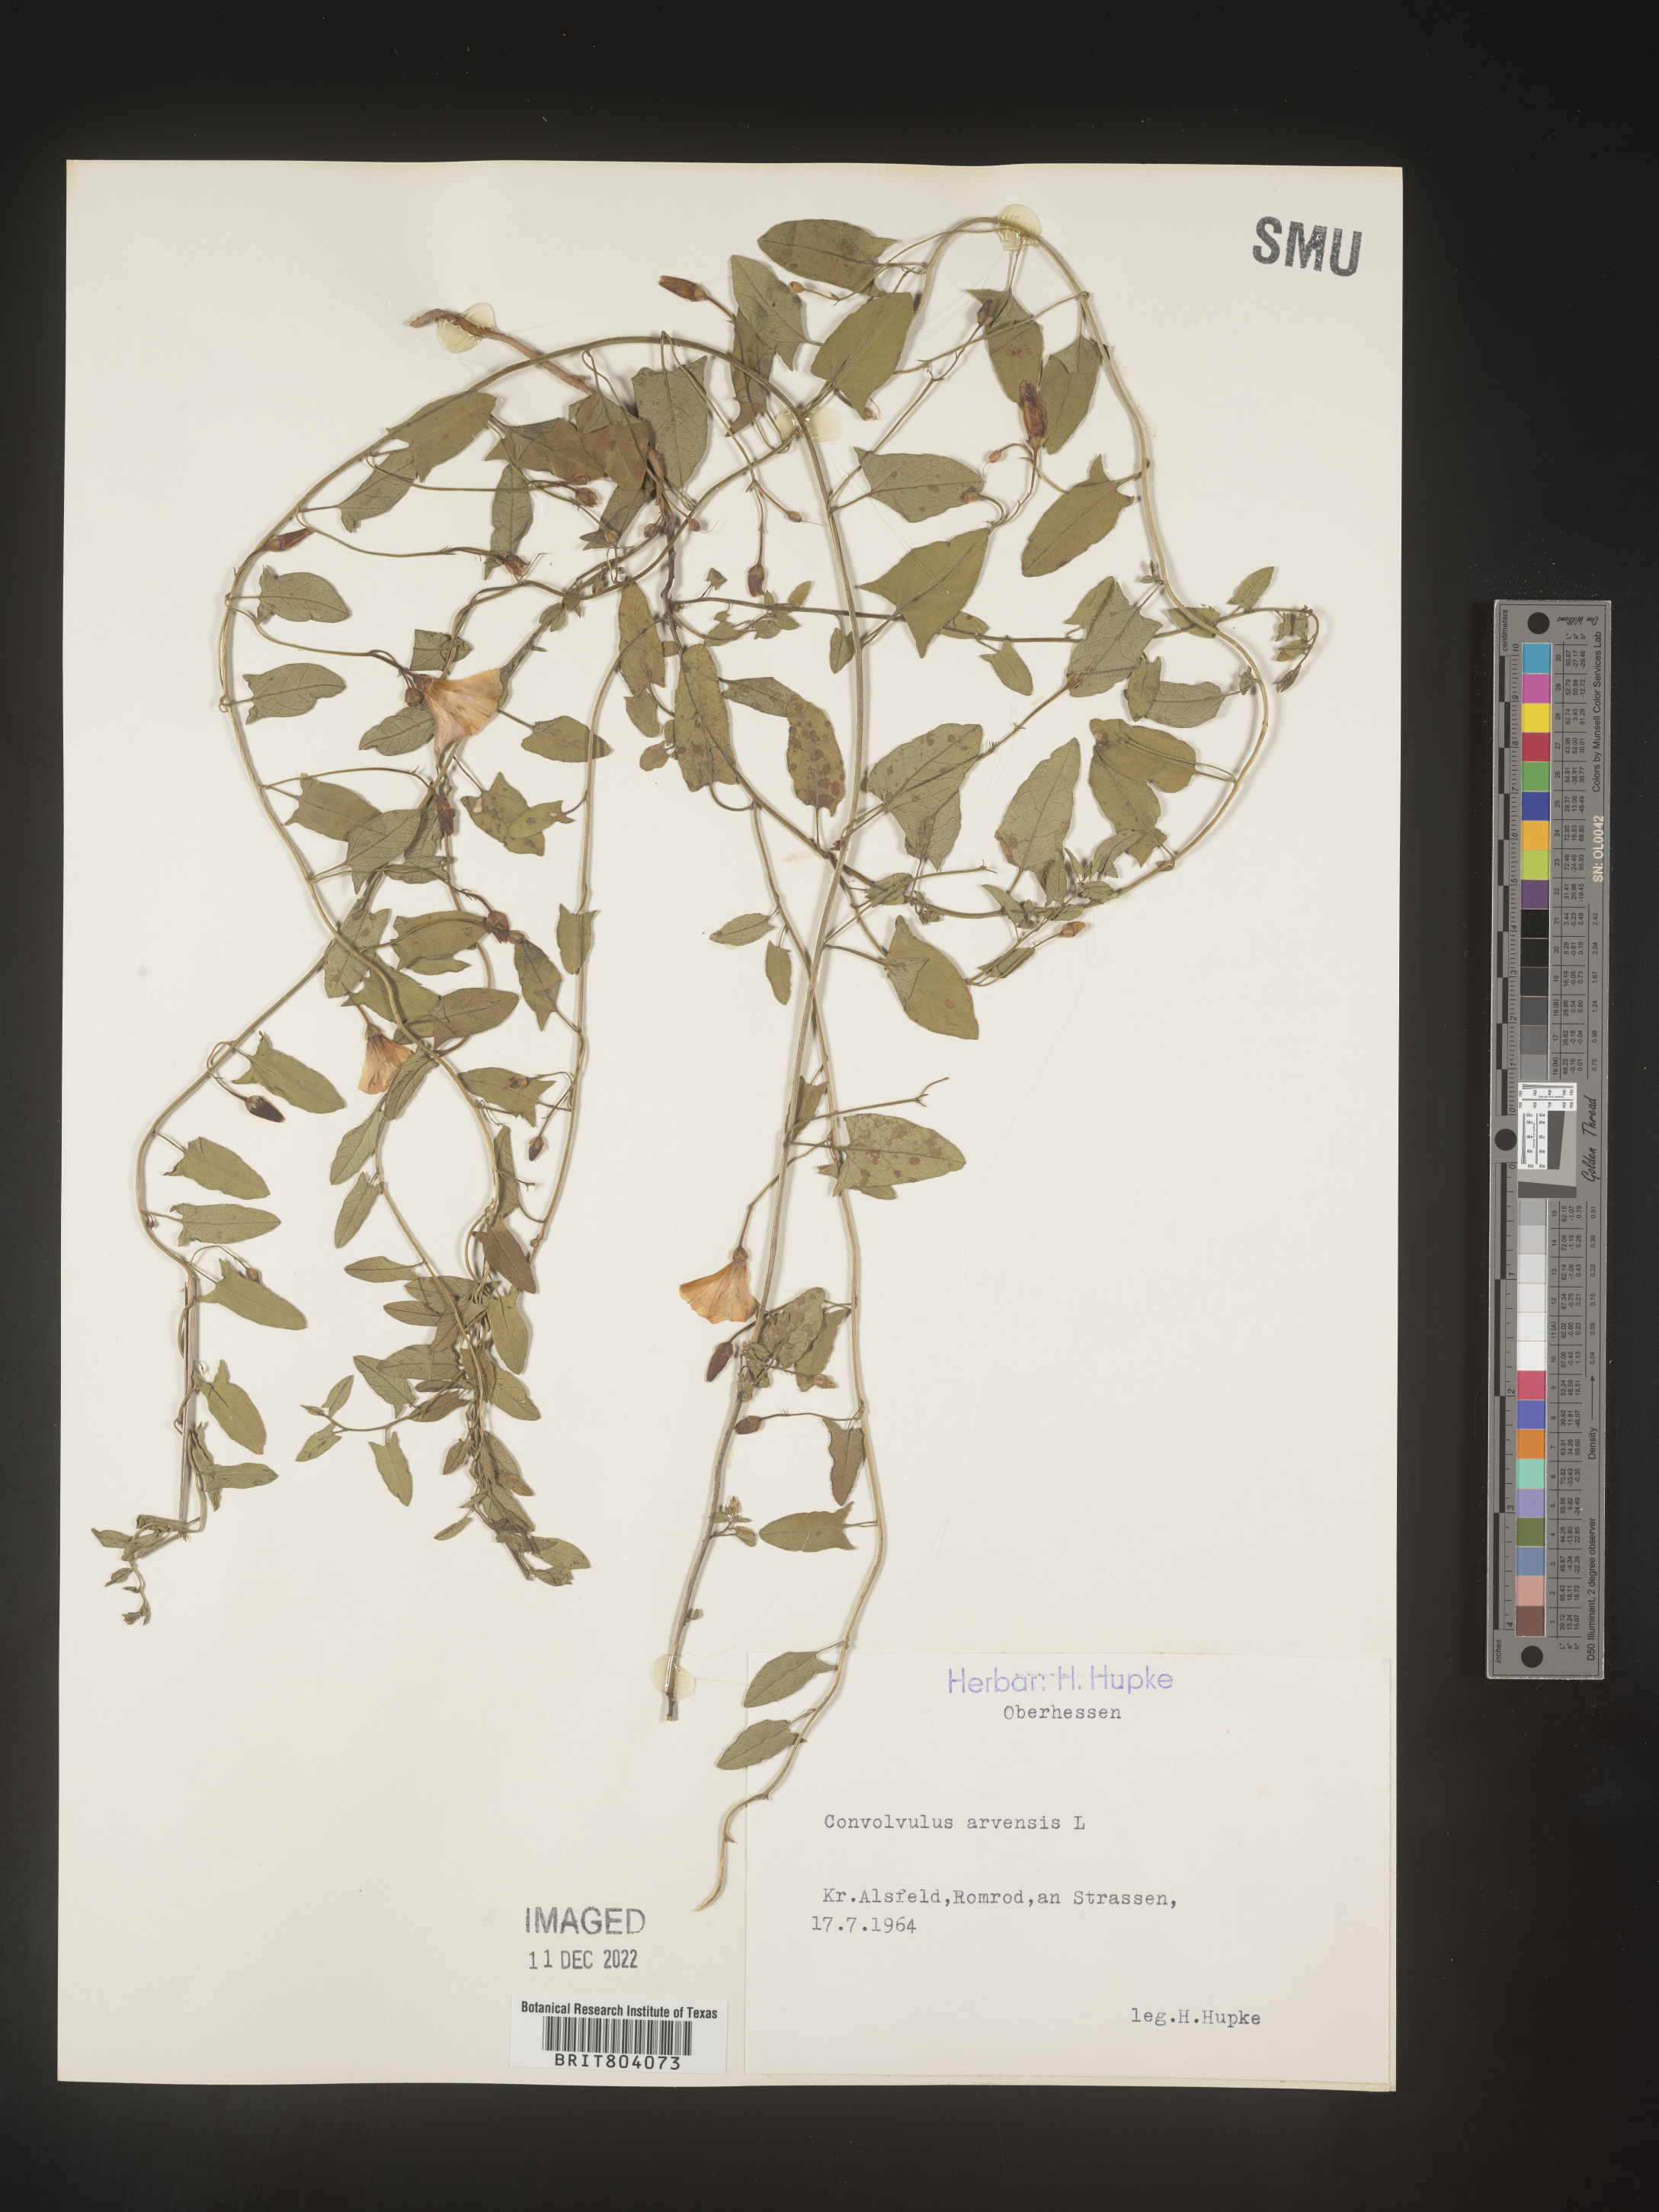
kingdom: Plantae
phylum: Tracheophyta
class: Magnoliopsida
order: Solanales
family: Convolvulaceae
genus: Convolvulus
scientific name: Convolvulus
